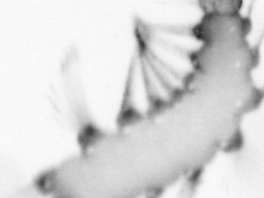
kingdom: Animalia
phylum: Annelida
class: Polychaeta
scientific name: Polychaeta
